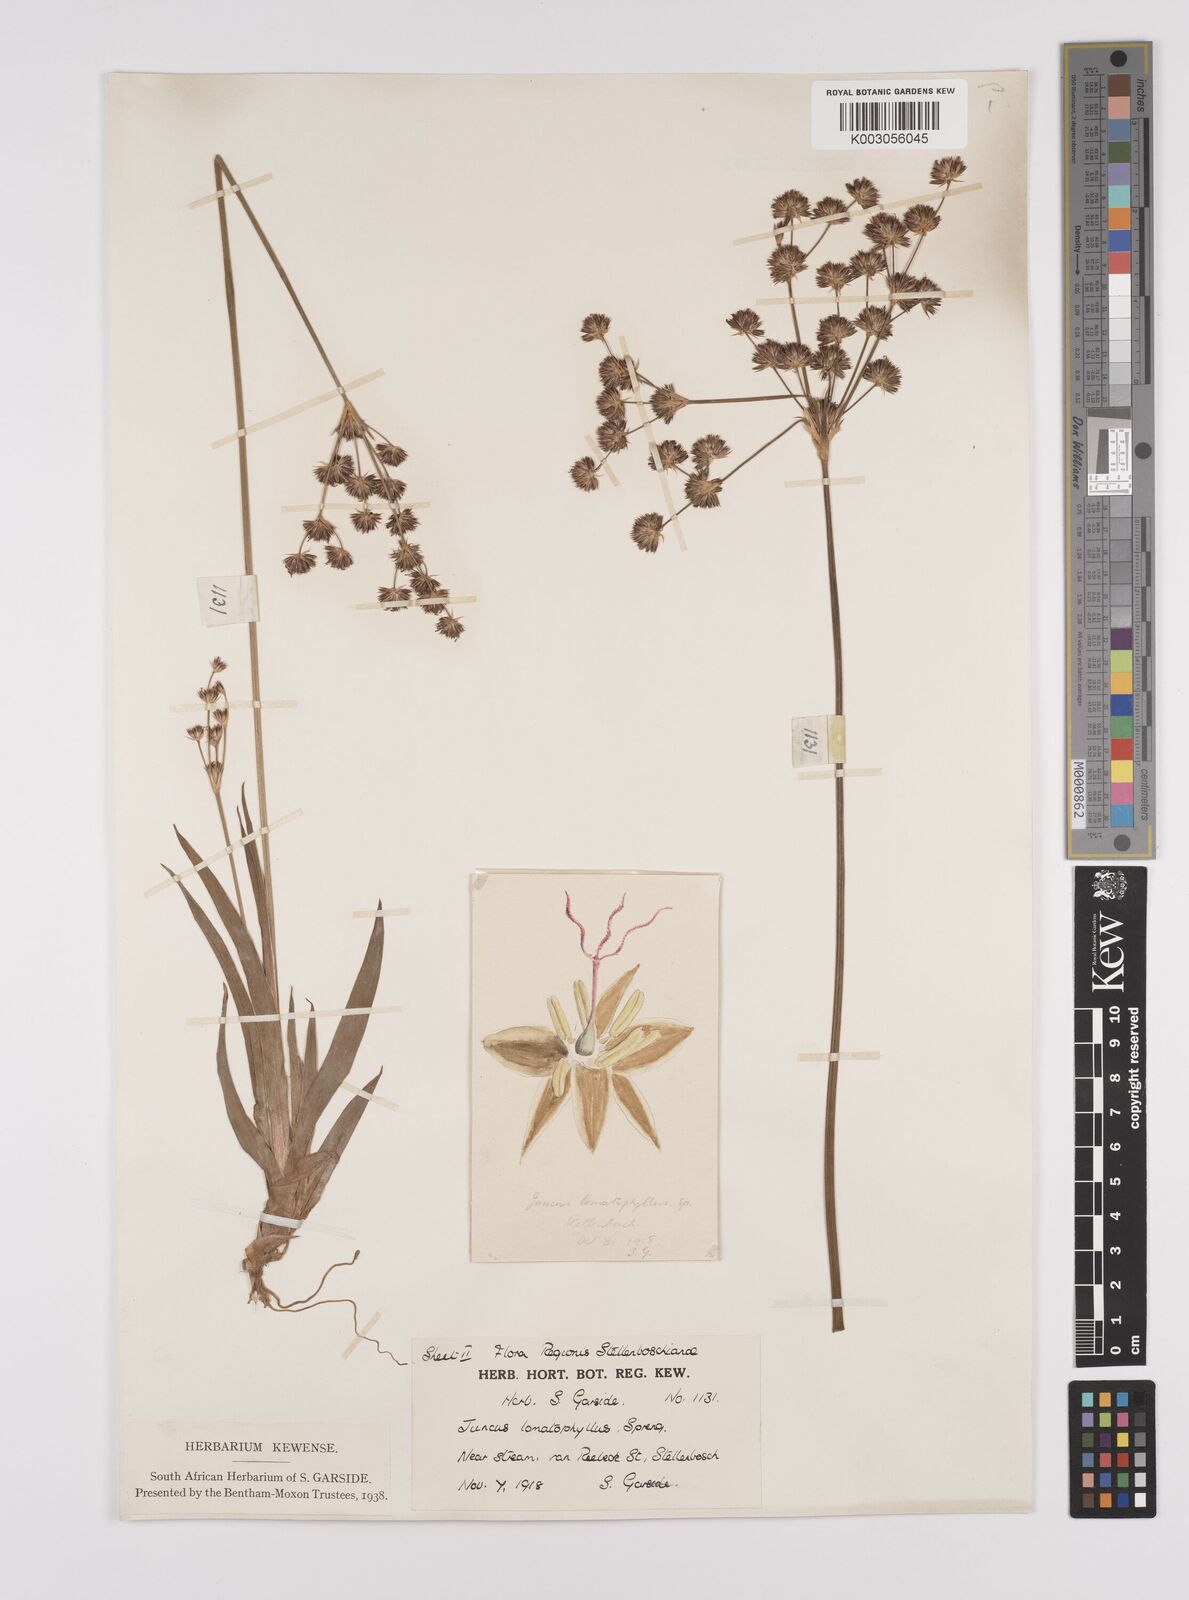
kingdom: Plantae
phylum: Tracheophyta
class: Liliopsida
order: Poales
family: Juncaceae
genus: Juncus
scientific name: Juncus lomatophyllus
